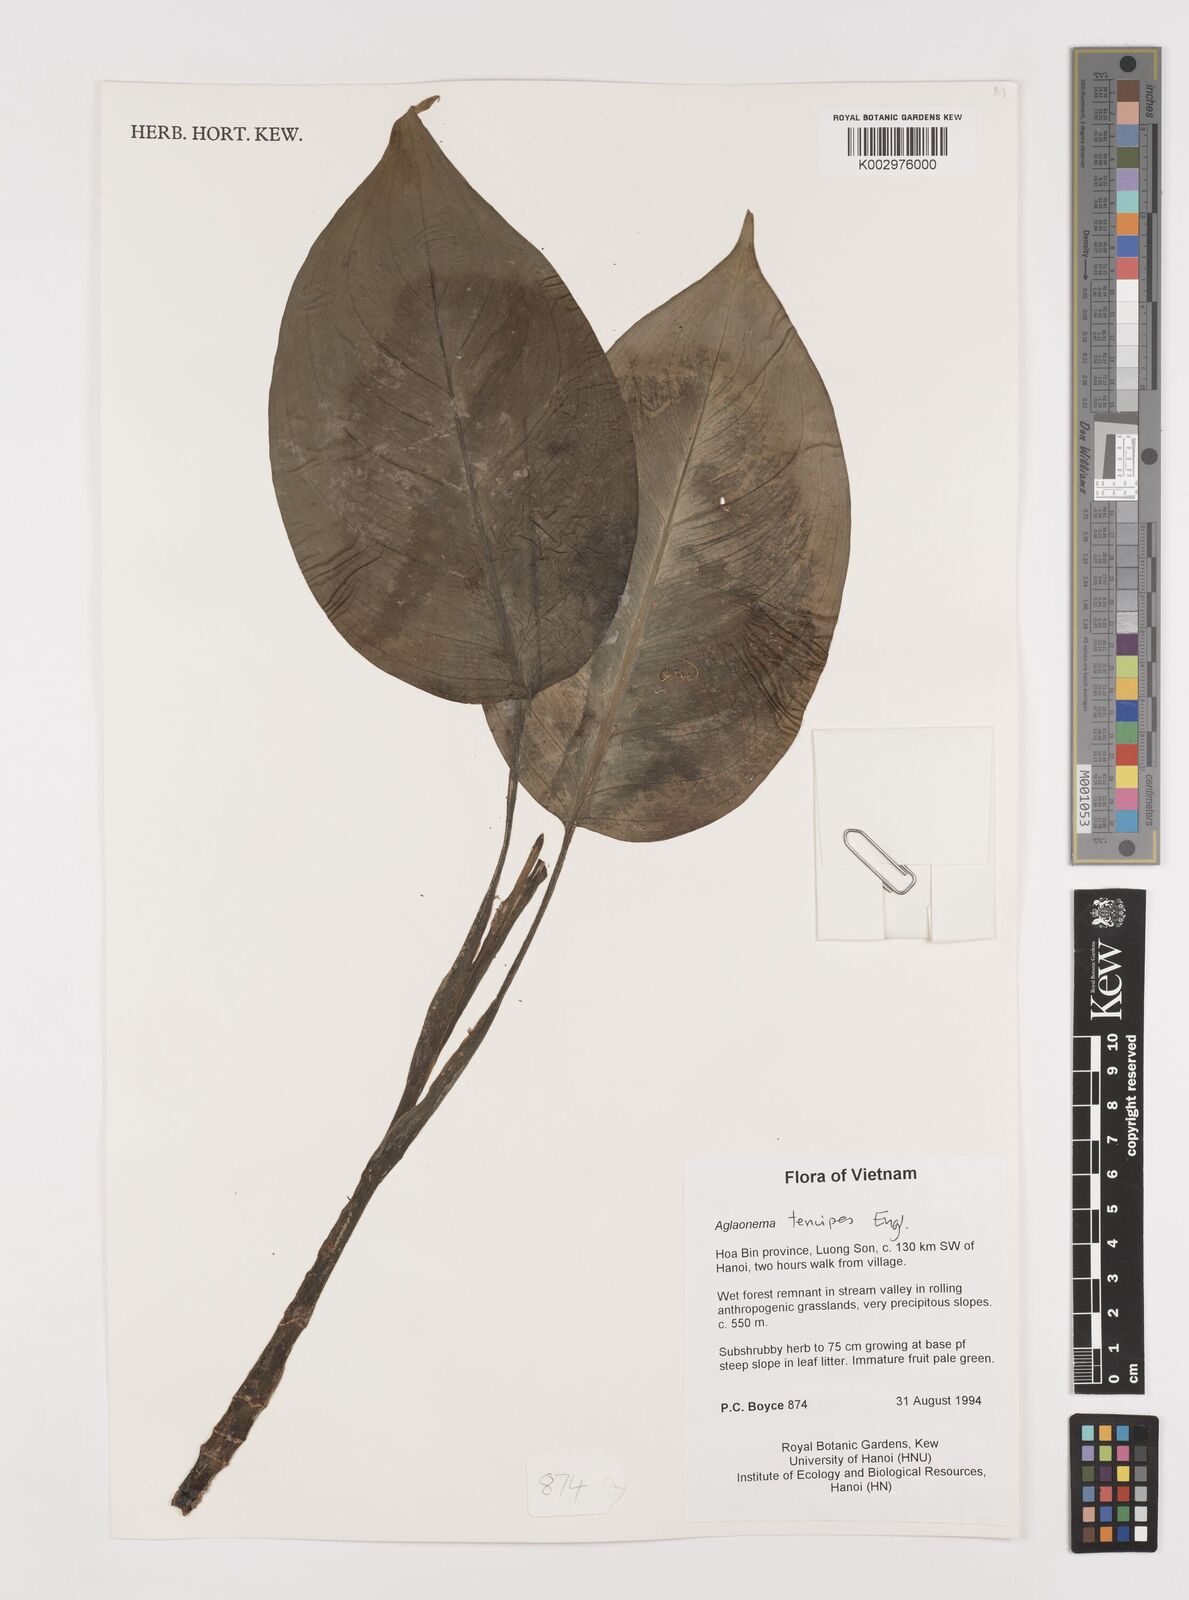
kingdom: Plantae
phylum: Tracheophyta
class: Liliopsida
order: Alismatales
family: Araceae
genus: Aglaonema
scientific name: Aglaonema simplex
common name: Malayan-sword
